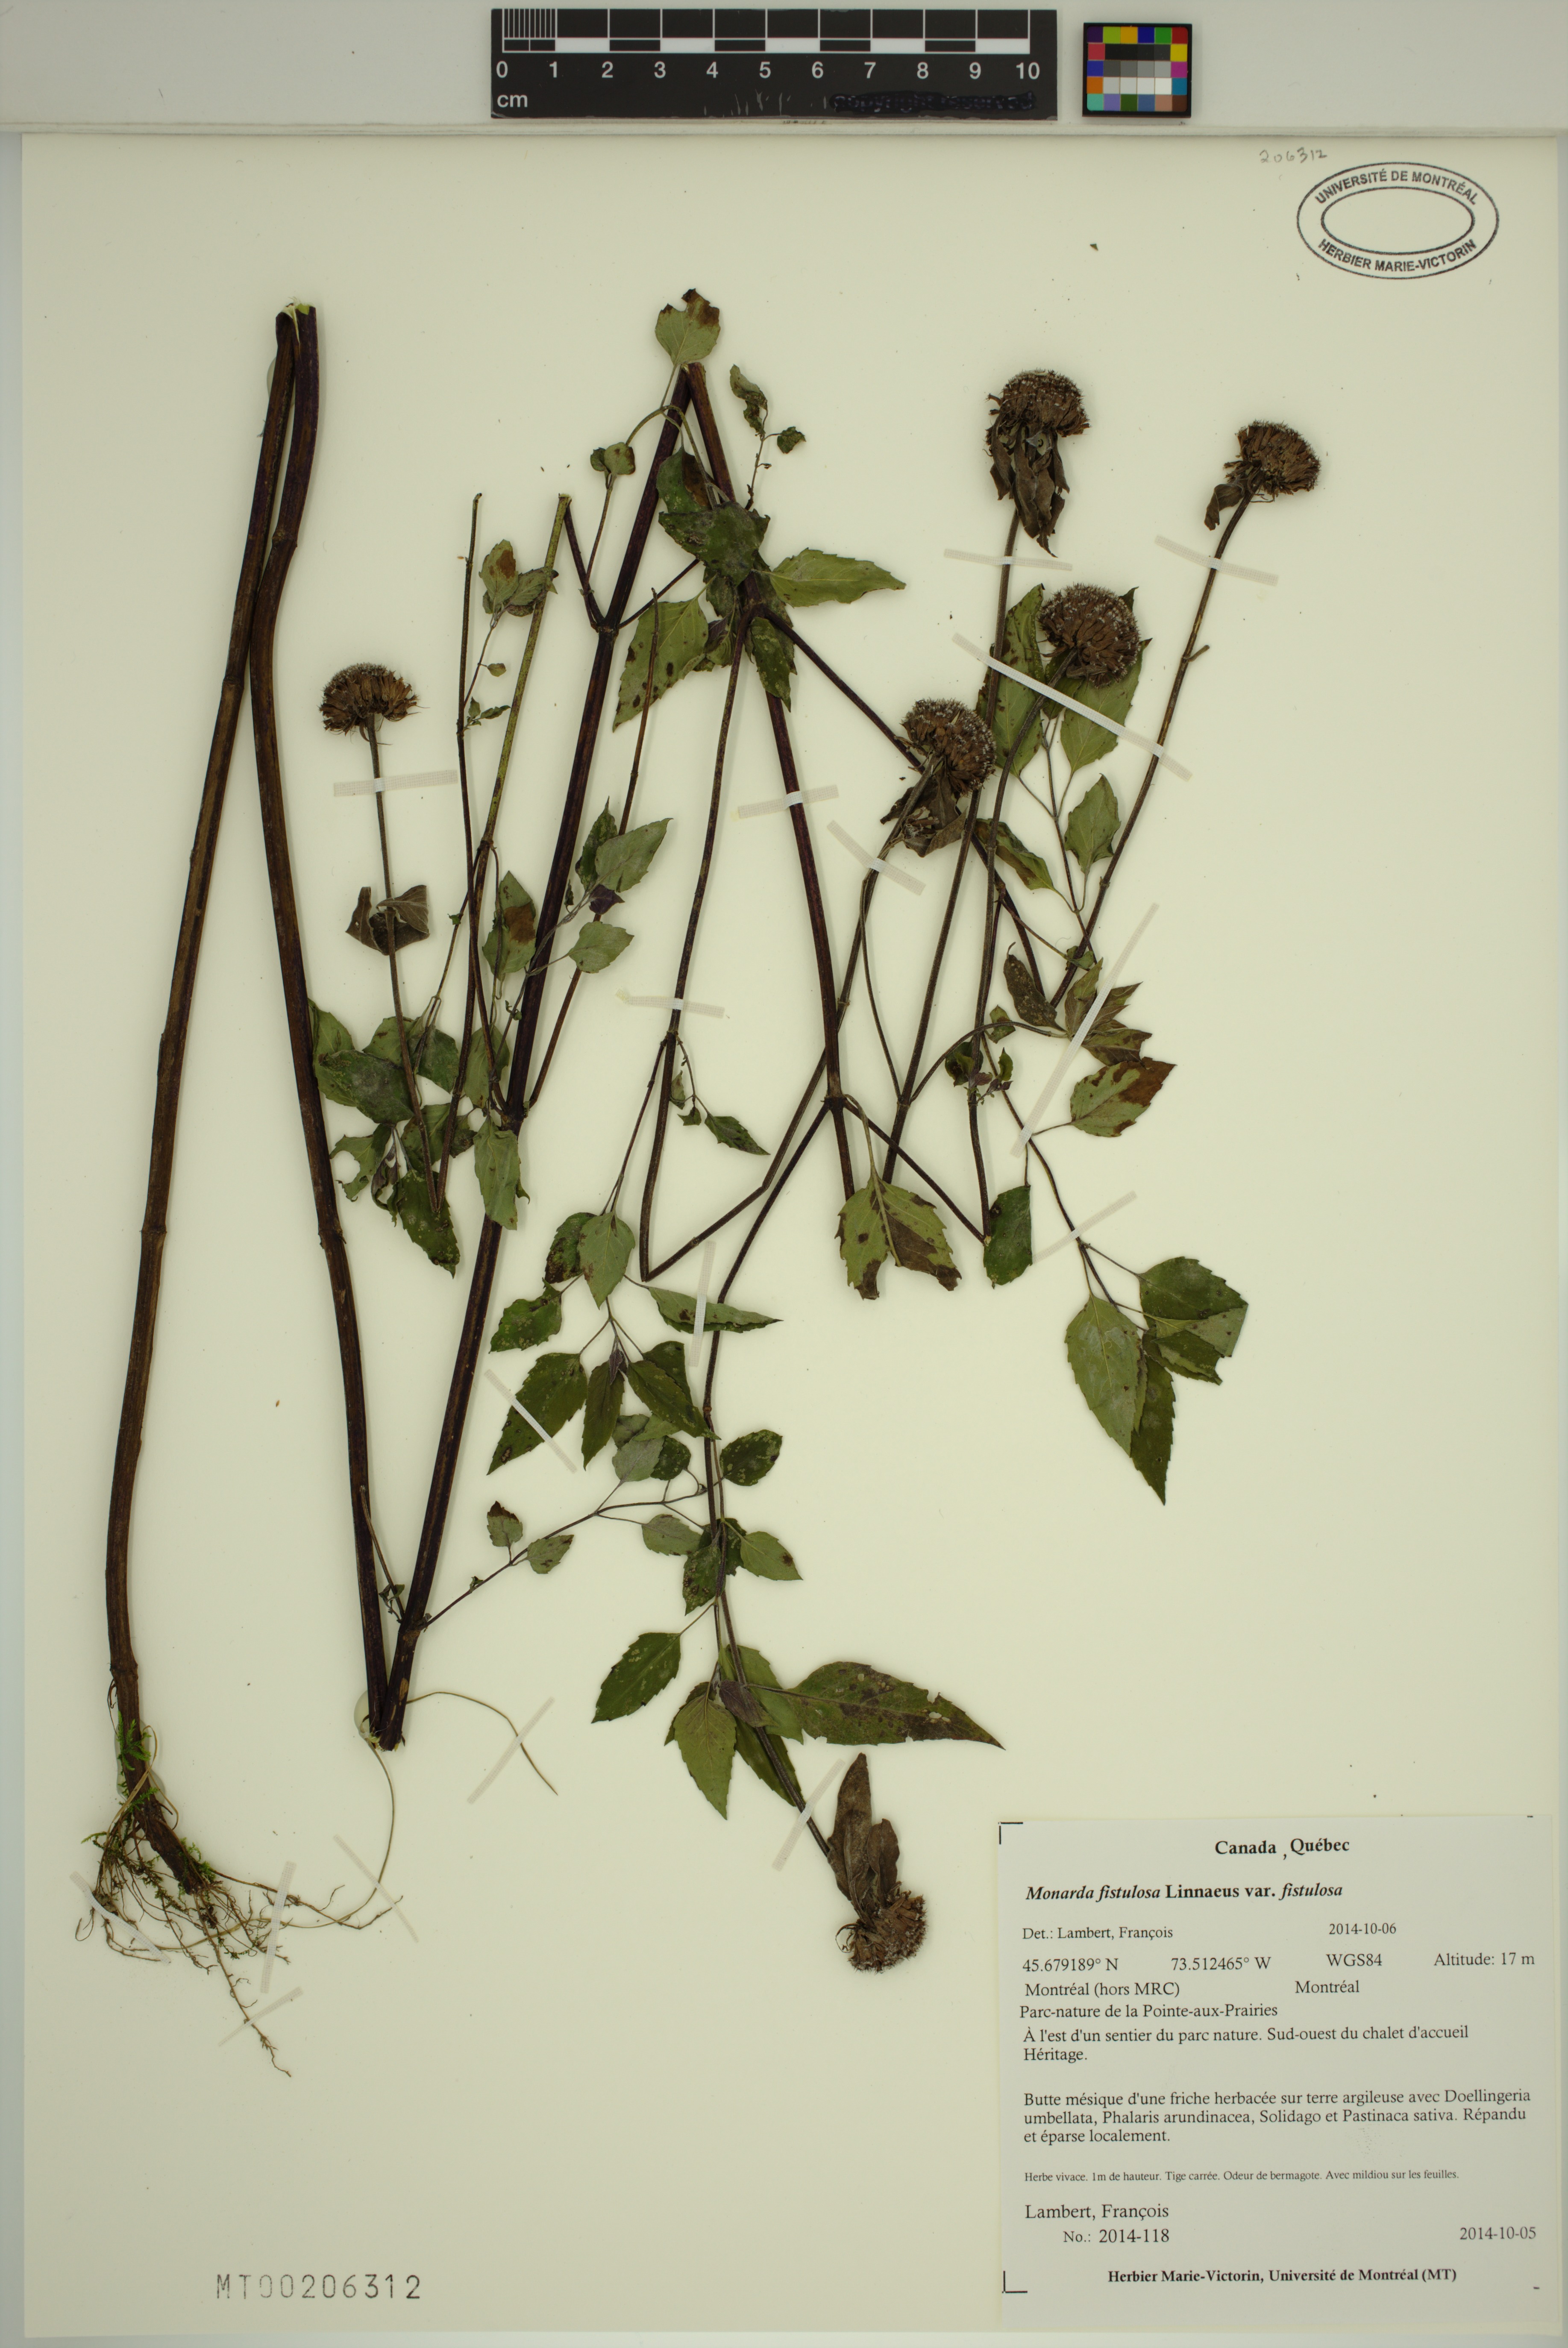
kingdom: Plantae
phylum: Tracheophyta
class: Magnoliopsida
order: Lamiales
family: Lamiaceae
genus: Monarda
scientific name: Monarda fistulosa
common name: Purple beebalm
